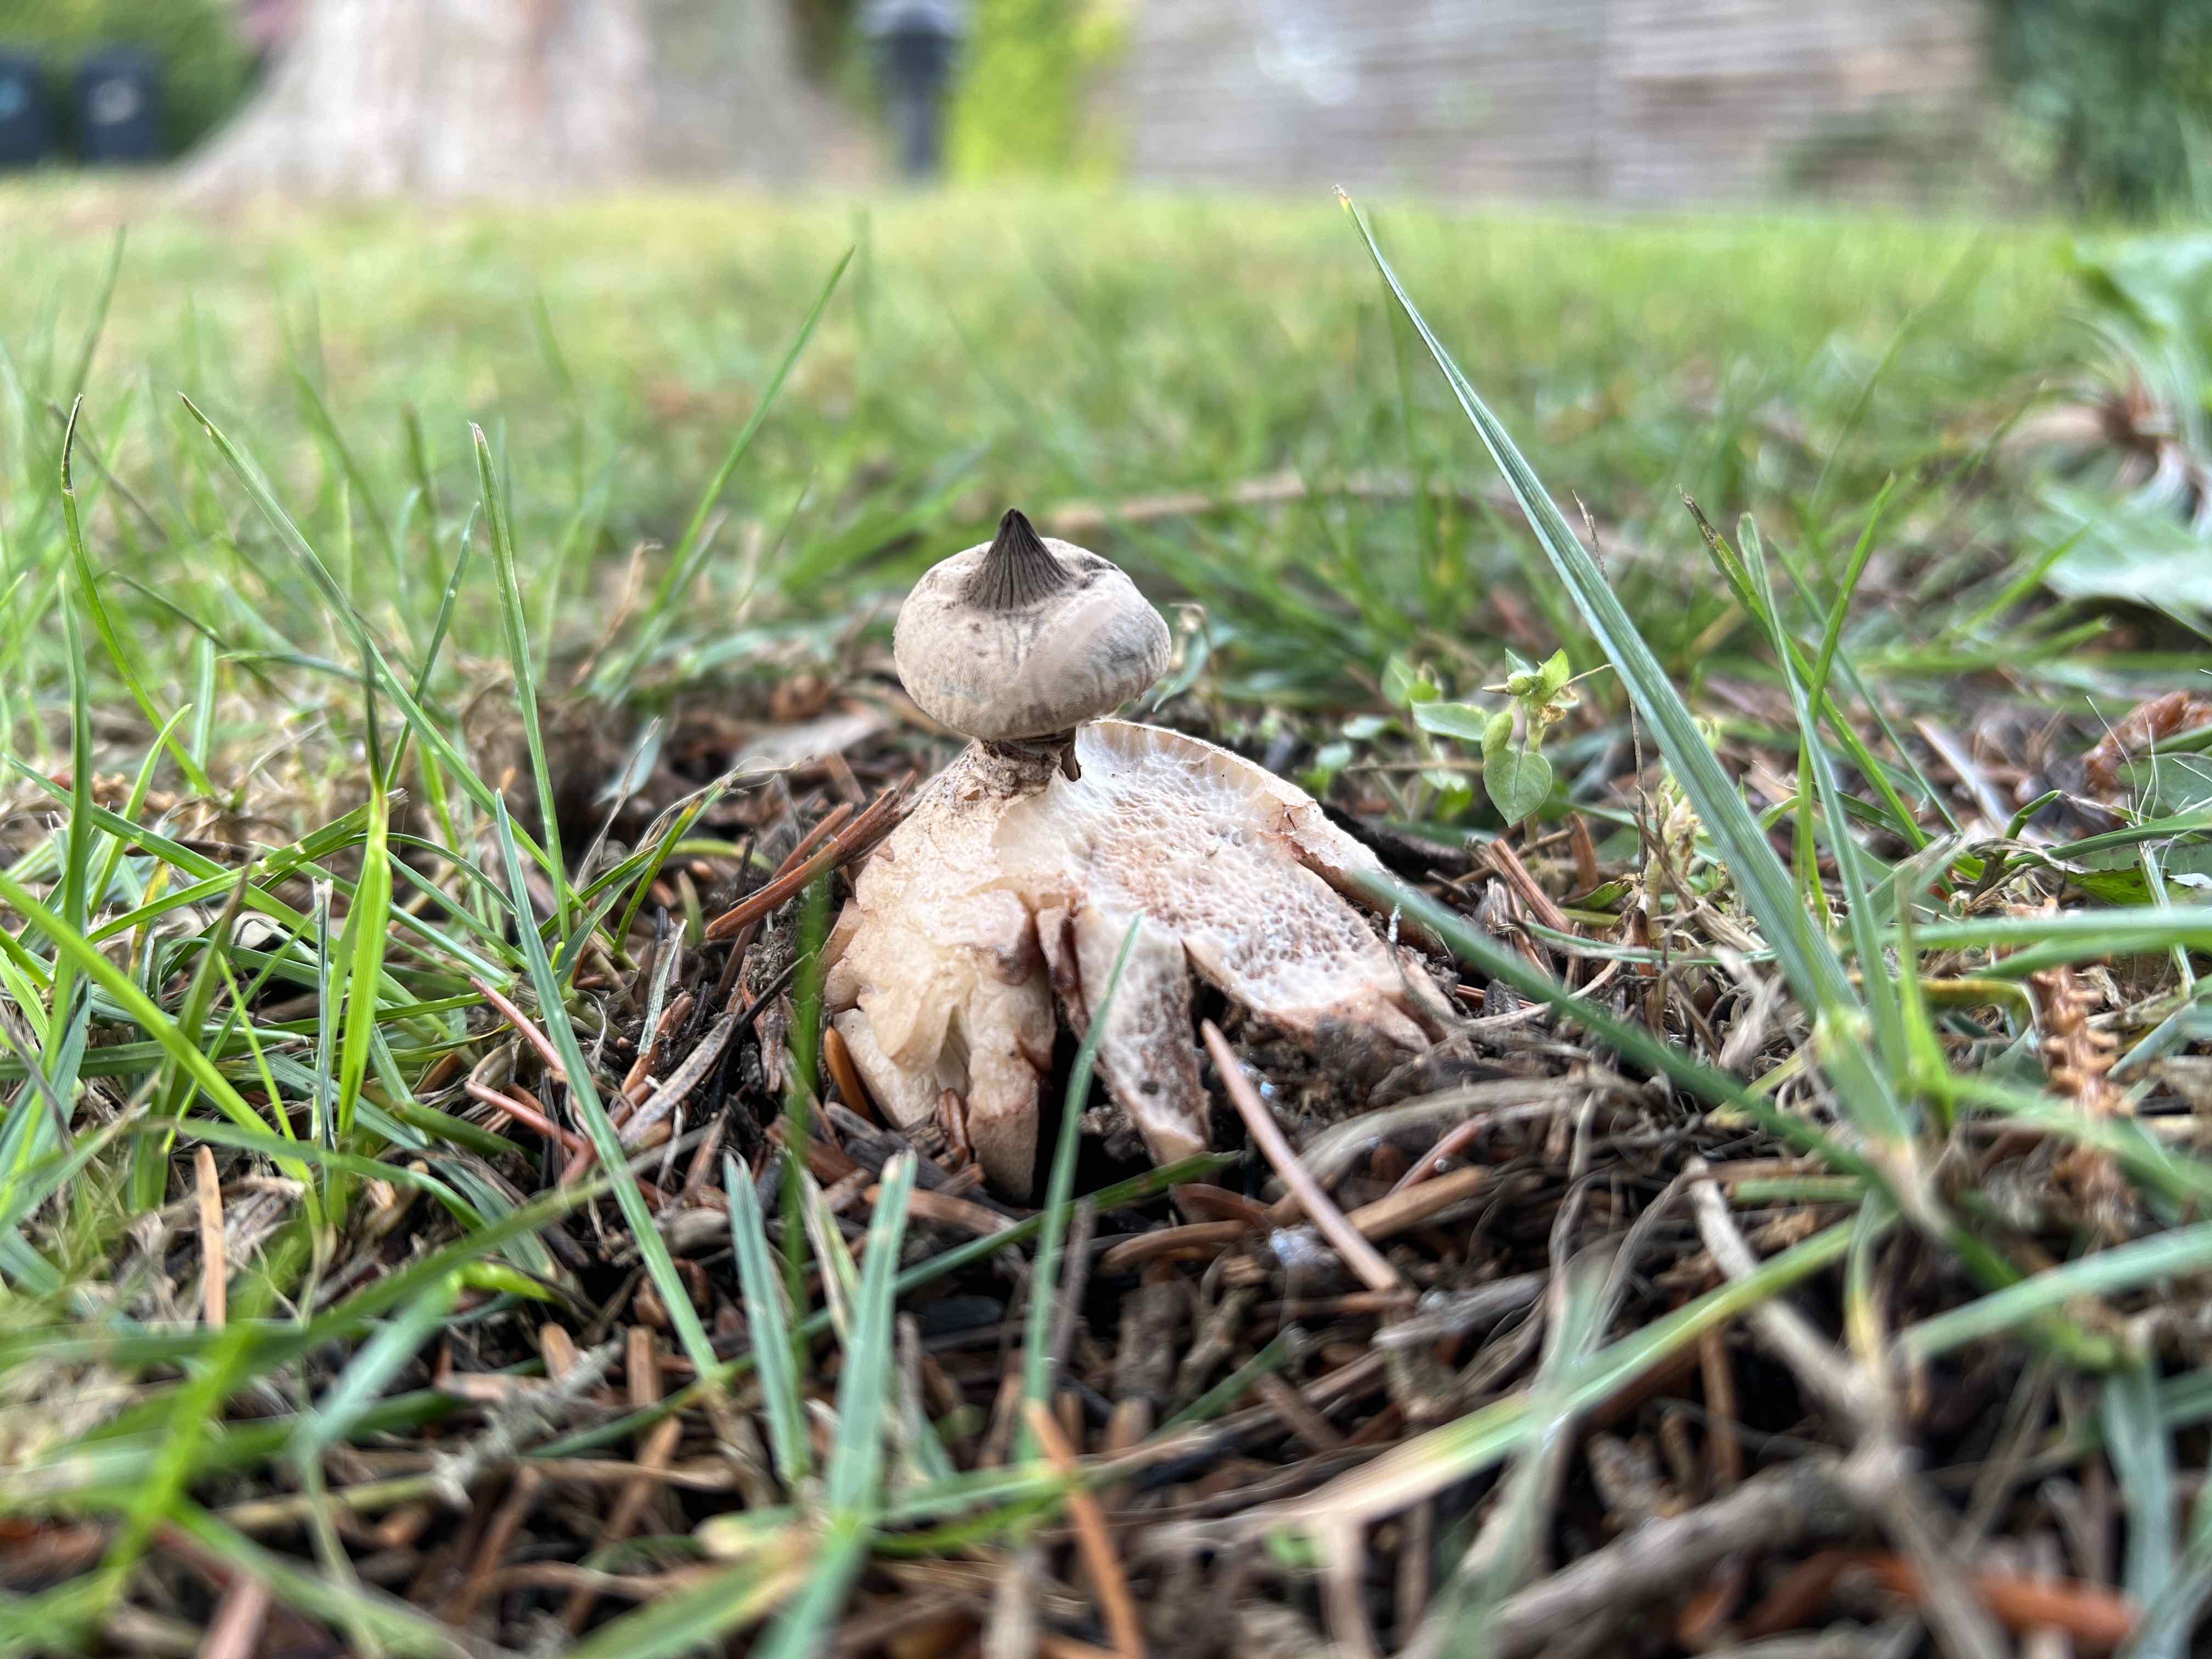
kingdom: Fungi
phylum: Basidiomycota
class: Agaricomycetes
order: Geastrales
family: Geastraceae
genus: Geastrum
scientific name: Geastrum striatum
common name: krave-stjernebold
